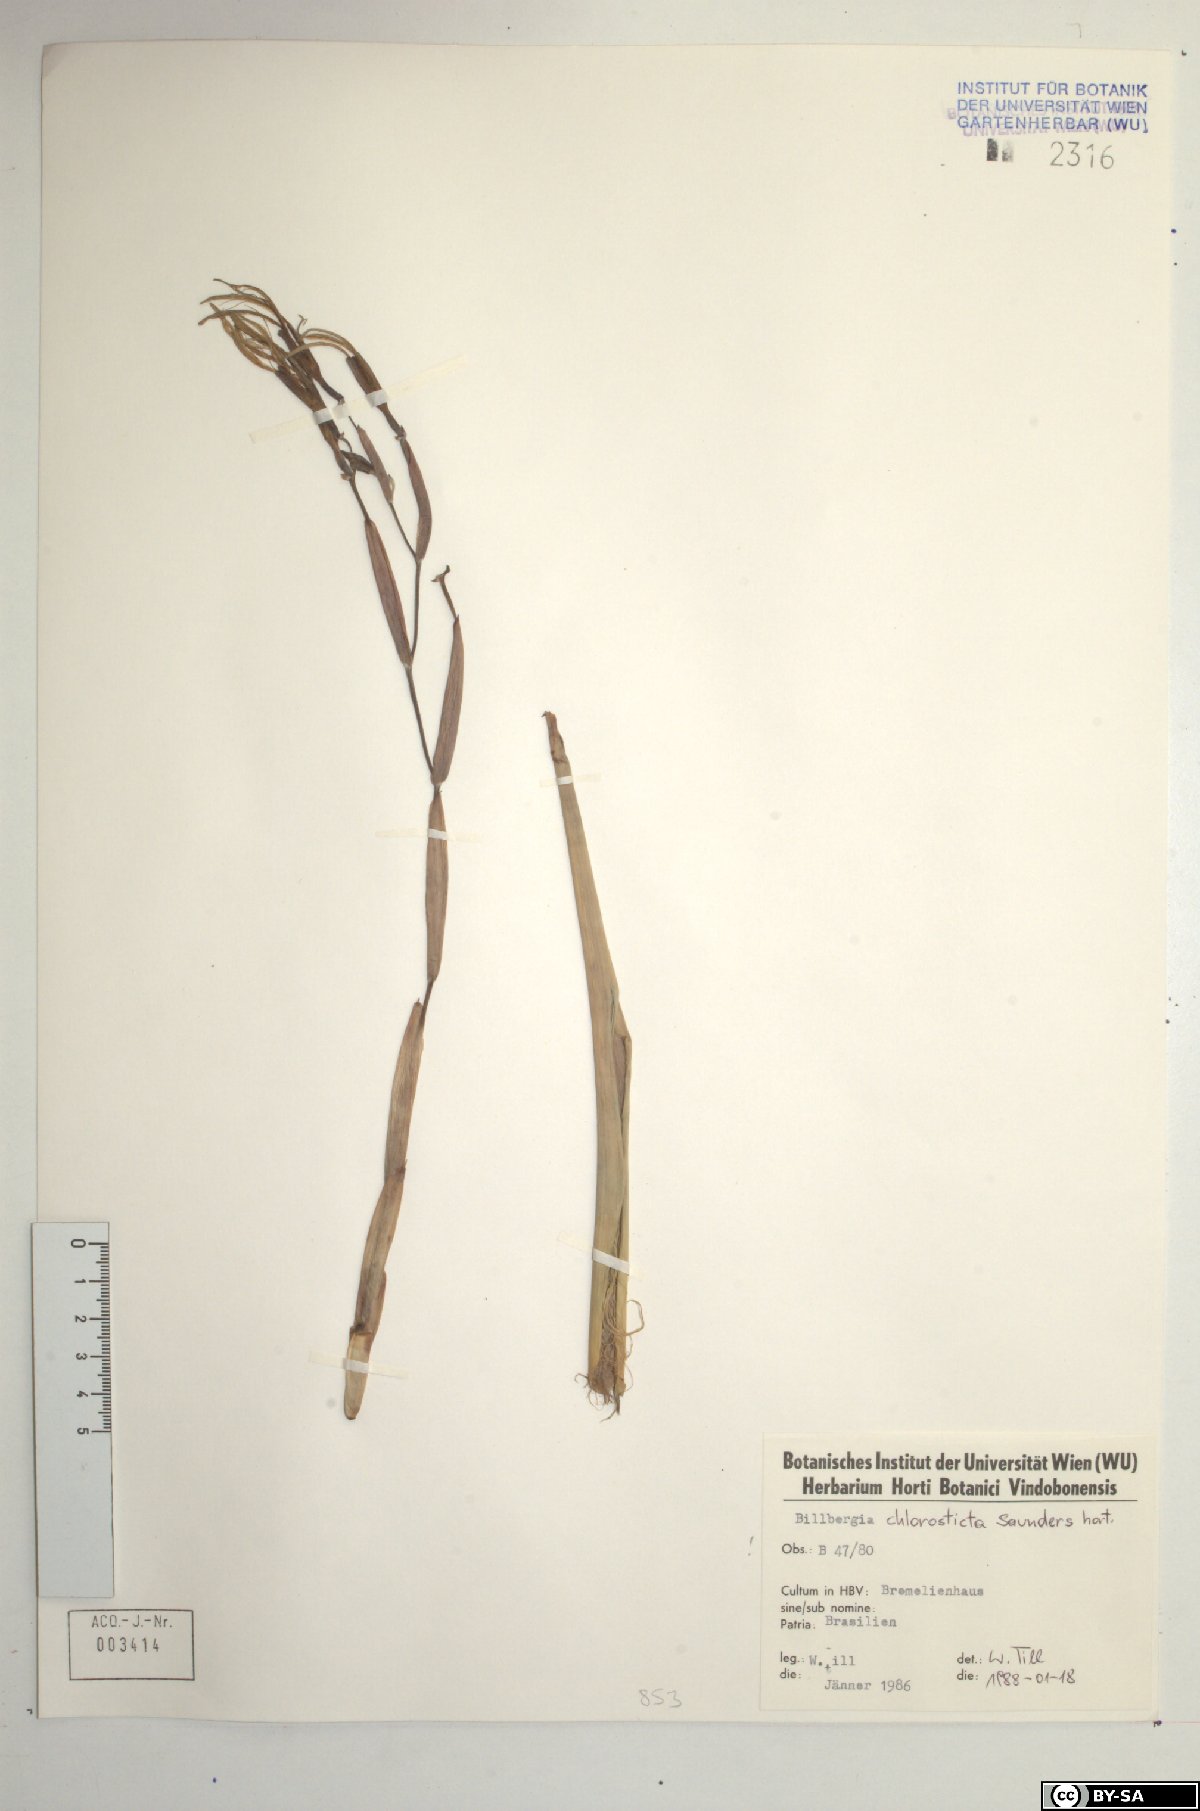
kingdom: Plantae
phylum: Tracheophyta
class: Liliopsida
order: Poales
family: Bromeliaceae
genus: Billbergia
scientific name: Billbergia chlorantha
